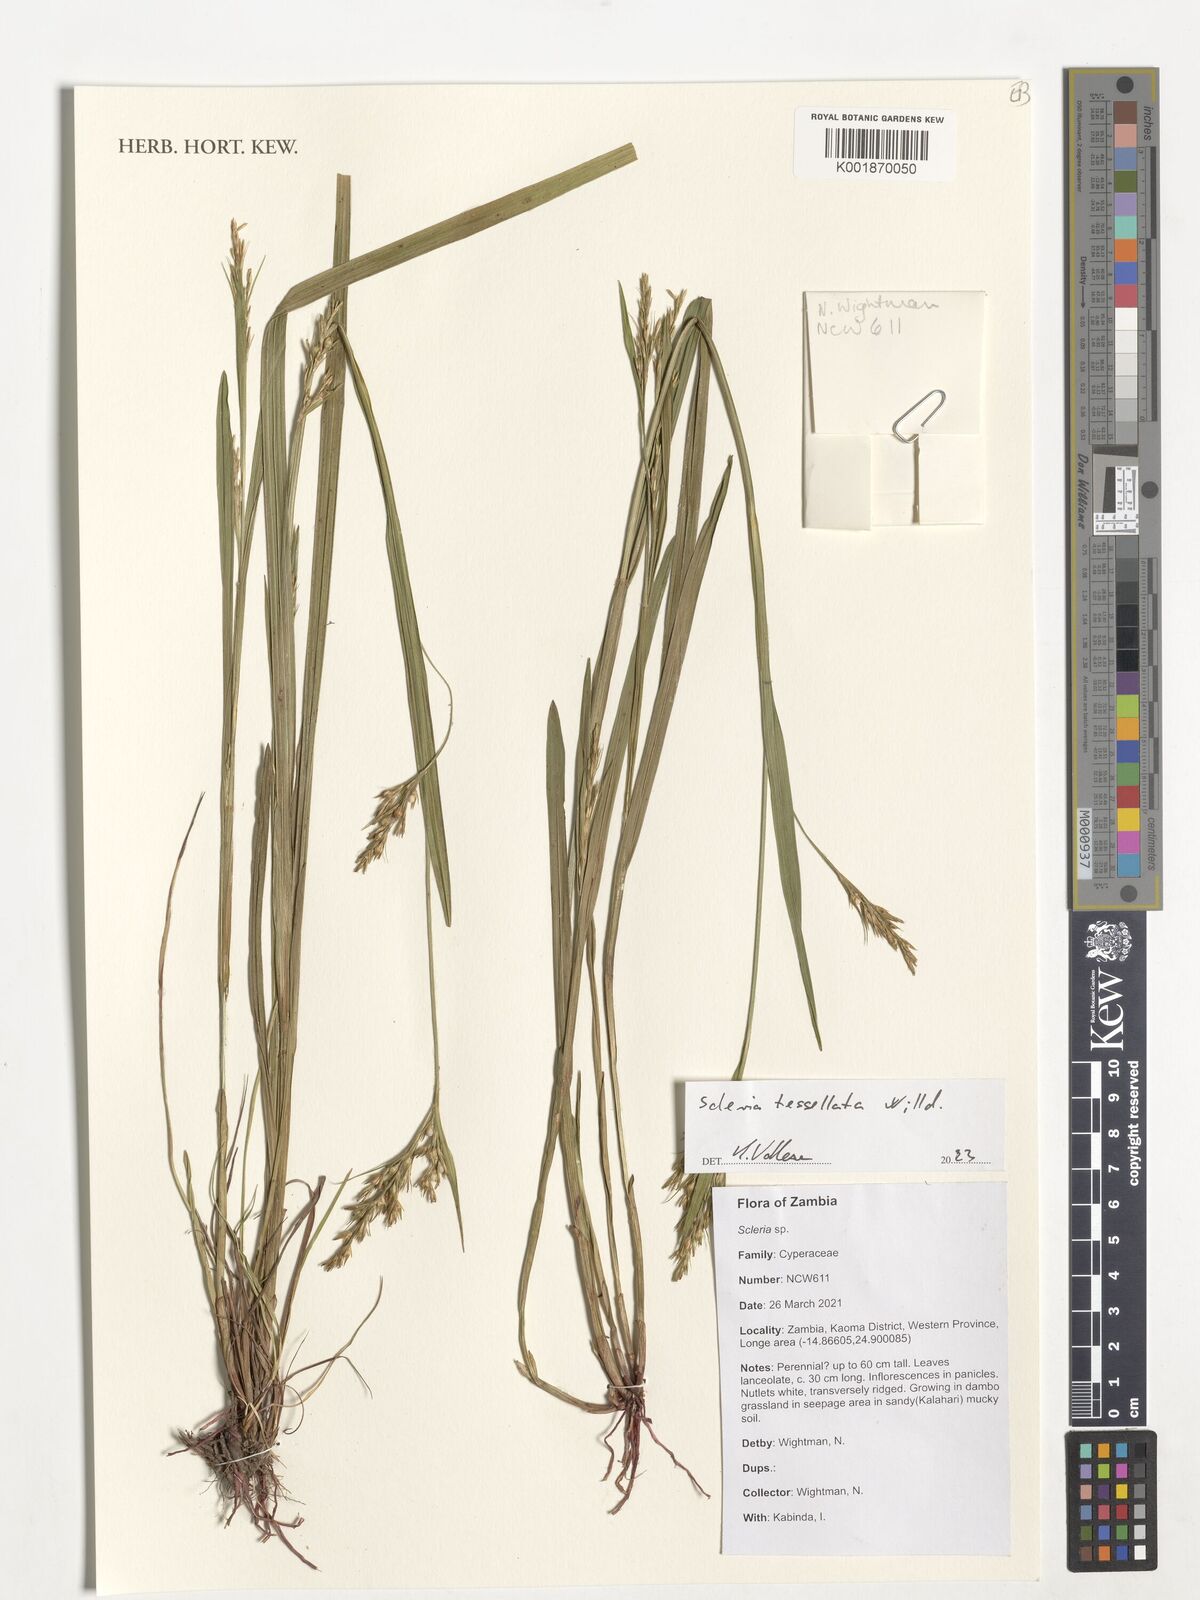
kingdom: Plantae
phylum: Tracheophyta
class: Liliopsida
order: Poales
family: Cyperaceae
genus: Scleria
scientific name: Scleria tessellata
